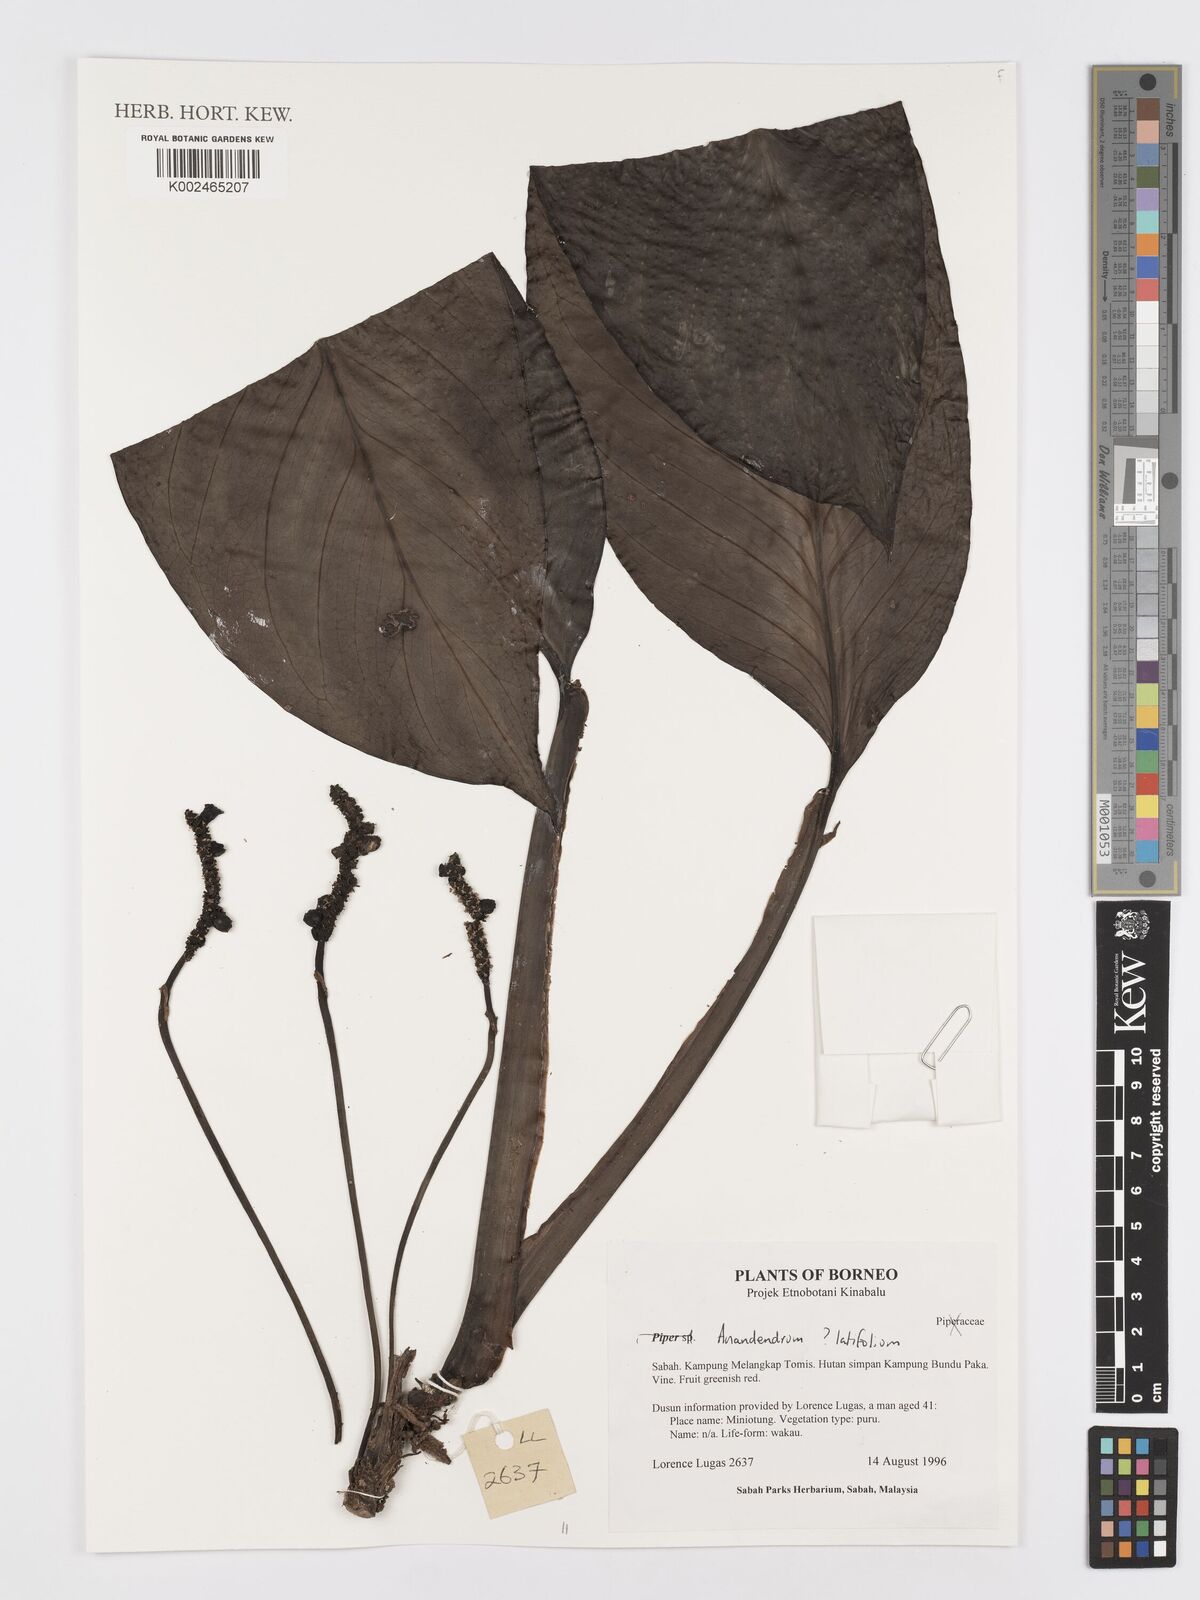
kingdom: Plantae
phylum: Tracheophyta
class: Liliopsida
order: Alismatales
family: Araceae
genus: Anadendrum
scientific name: Anadendrum latifolium
